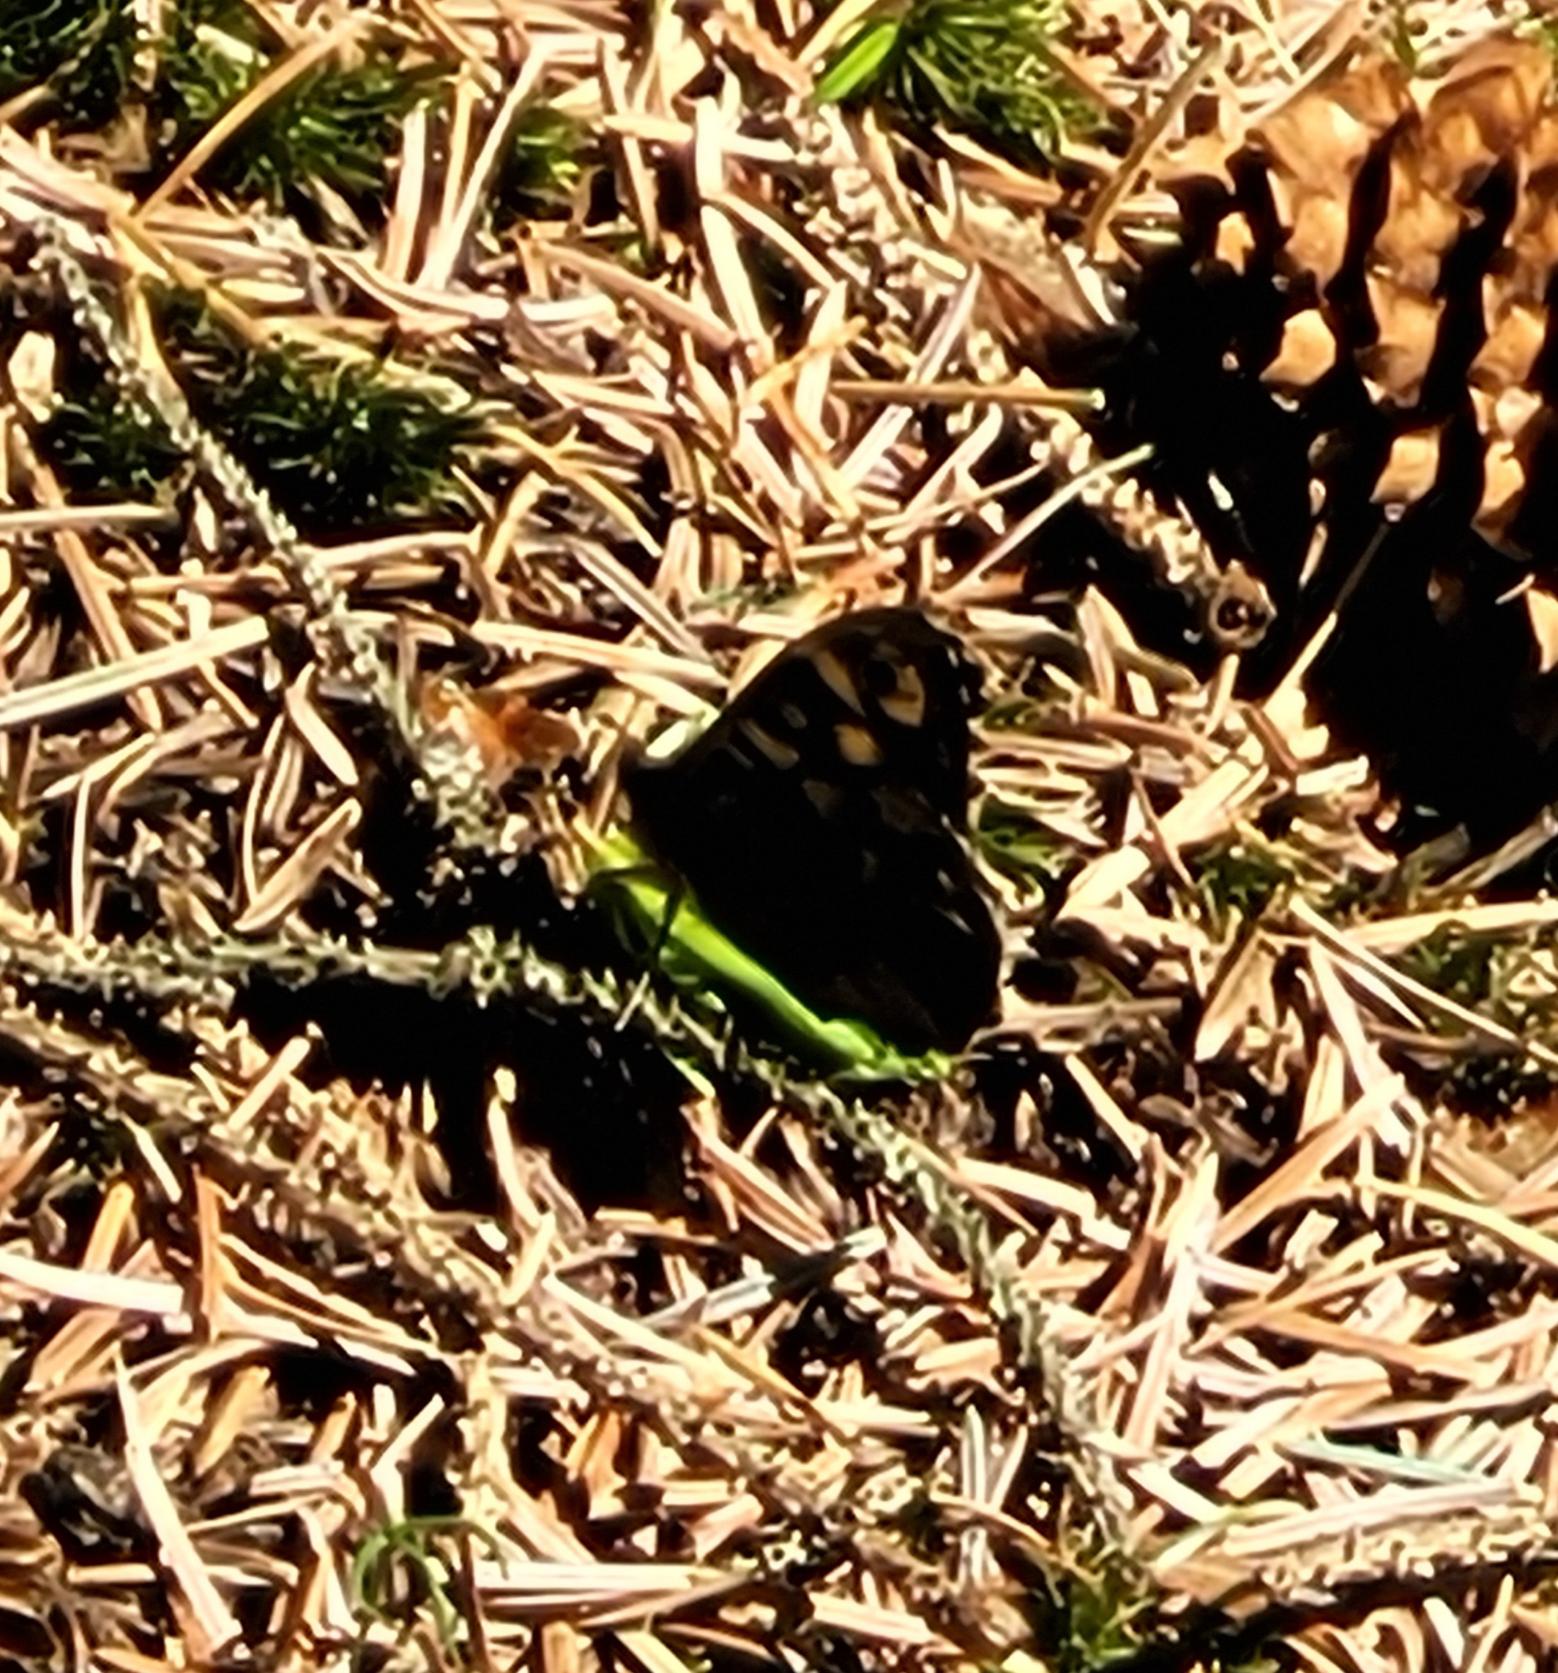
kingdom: Animalia
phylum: Arthropoda
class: Insecta
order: Lepidoptera
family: Nymphalidae
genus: Pararge
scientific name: Pararge aegeria
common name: Skovrandøje
